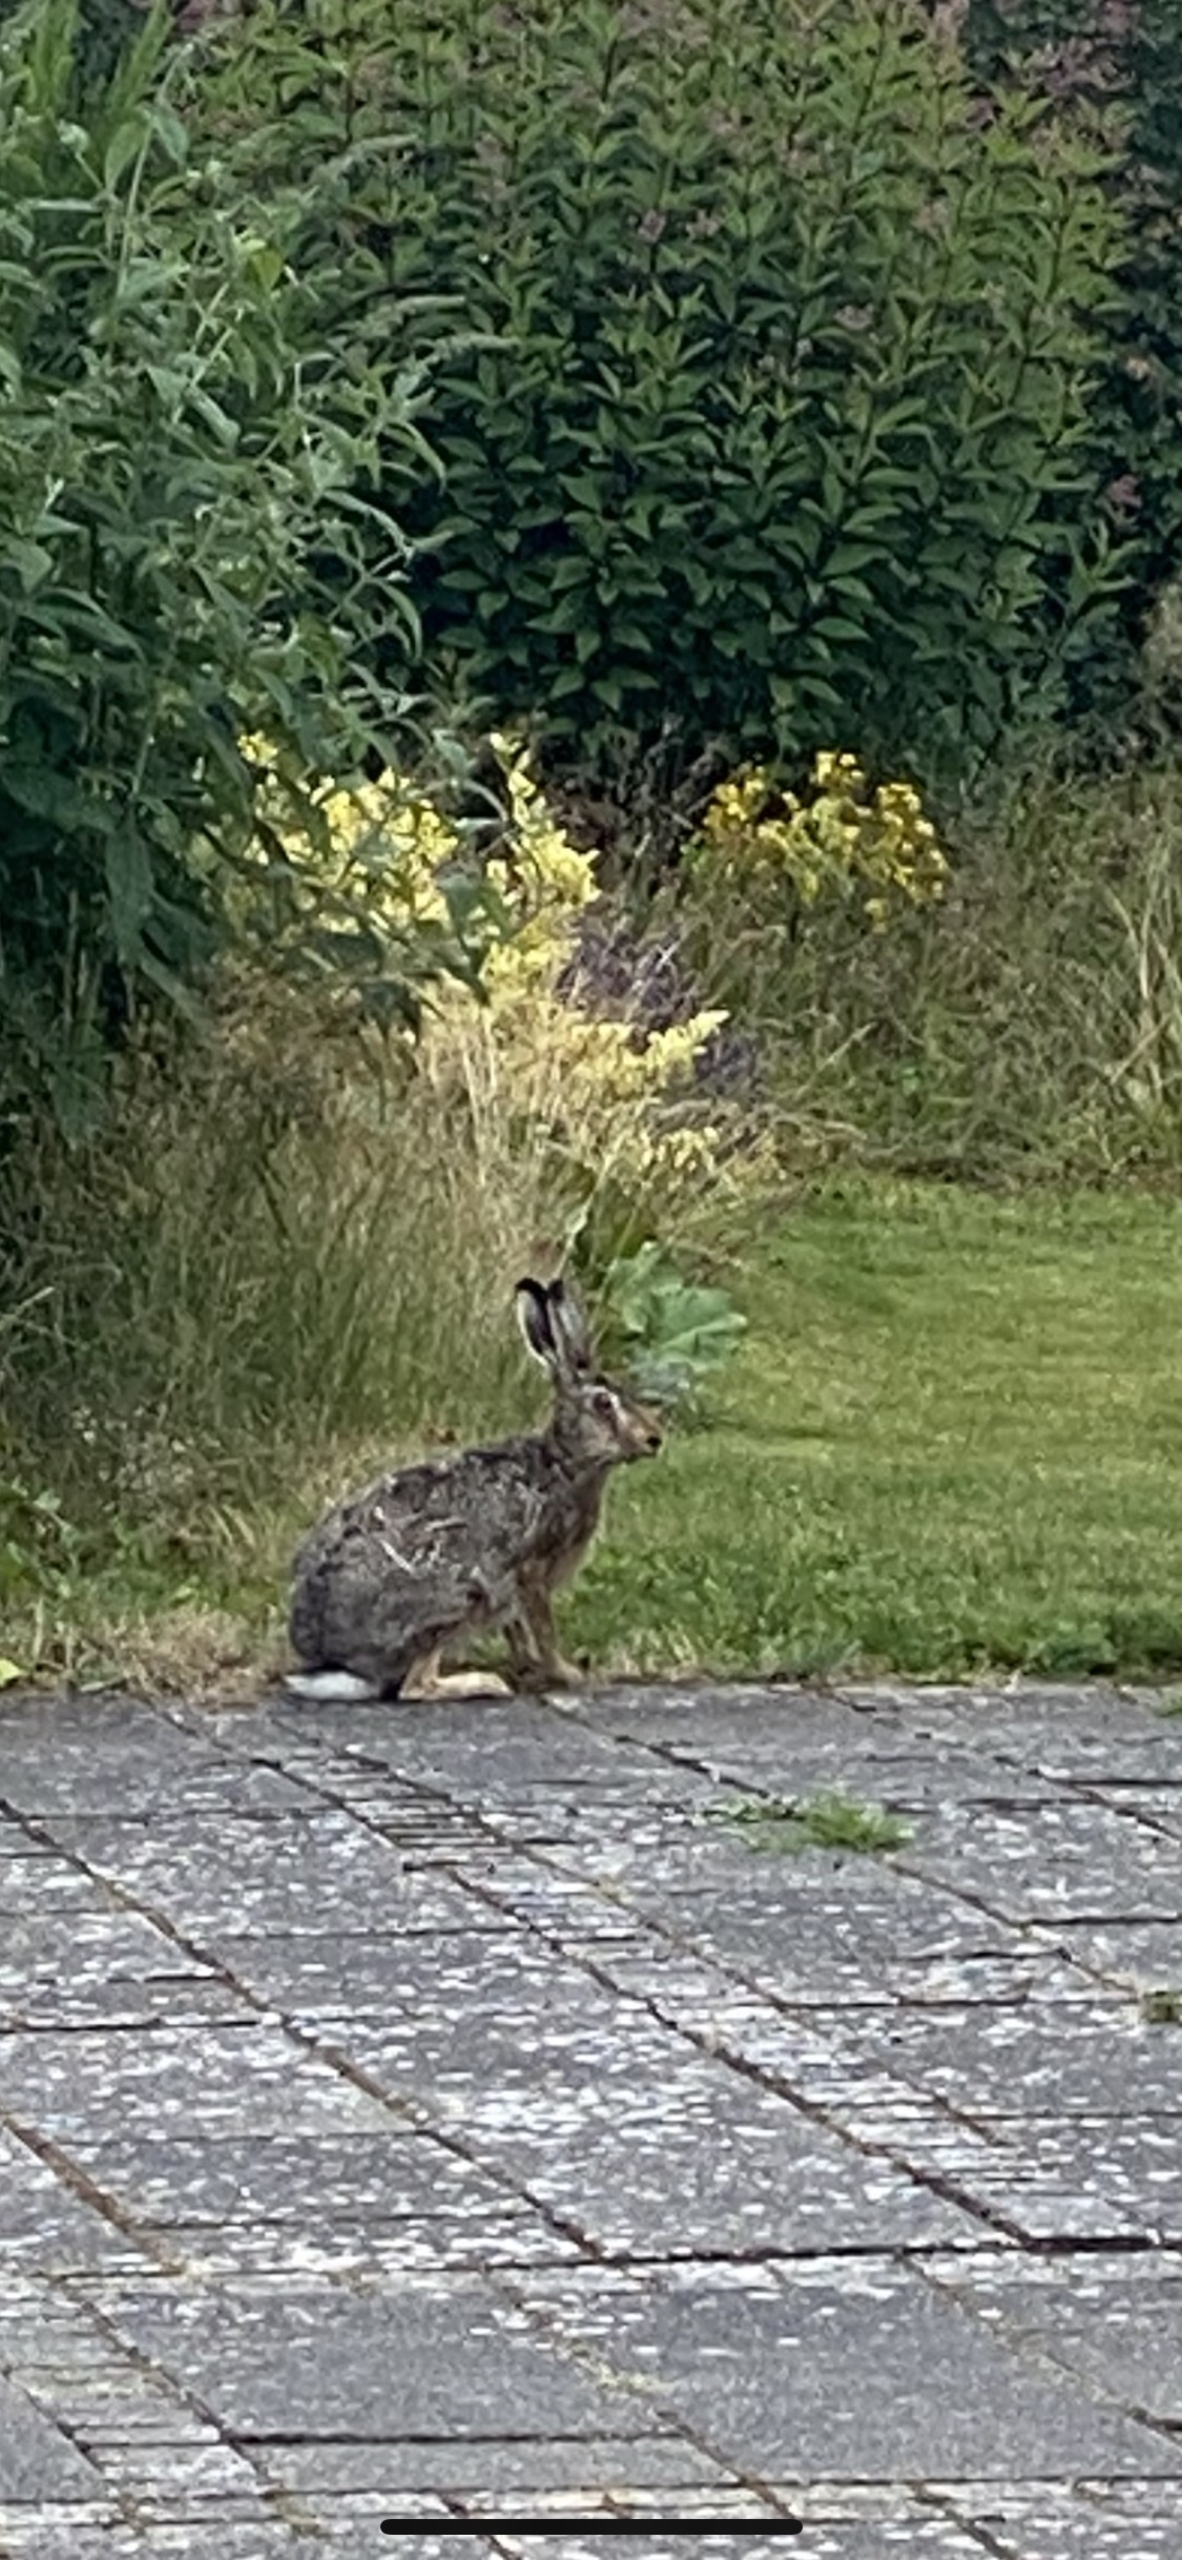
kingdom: Animalia
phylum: Chordata
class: Mammalia
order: Lagomorpha
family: Leporidae
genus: Lepus
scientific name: Lepus europaeus
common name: Hare
